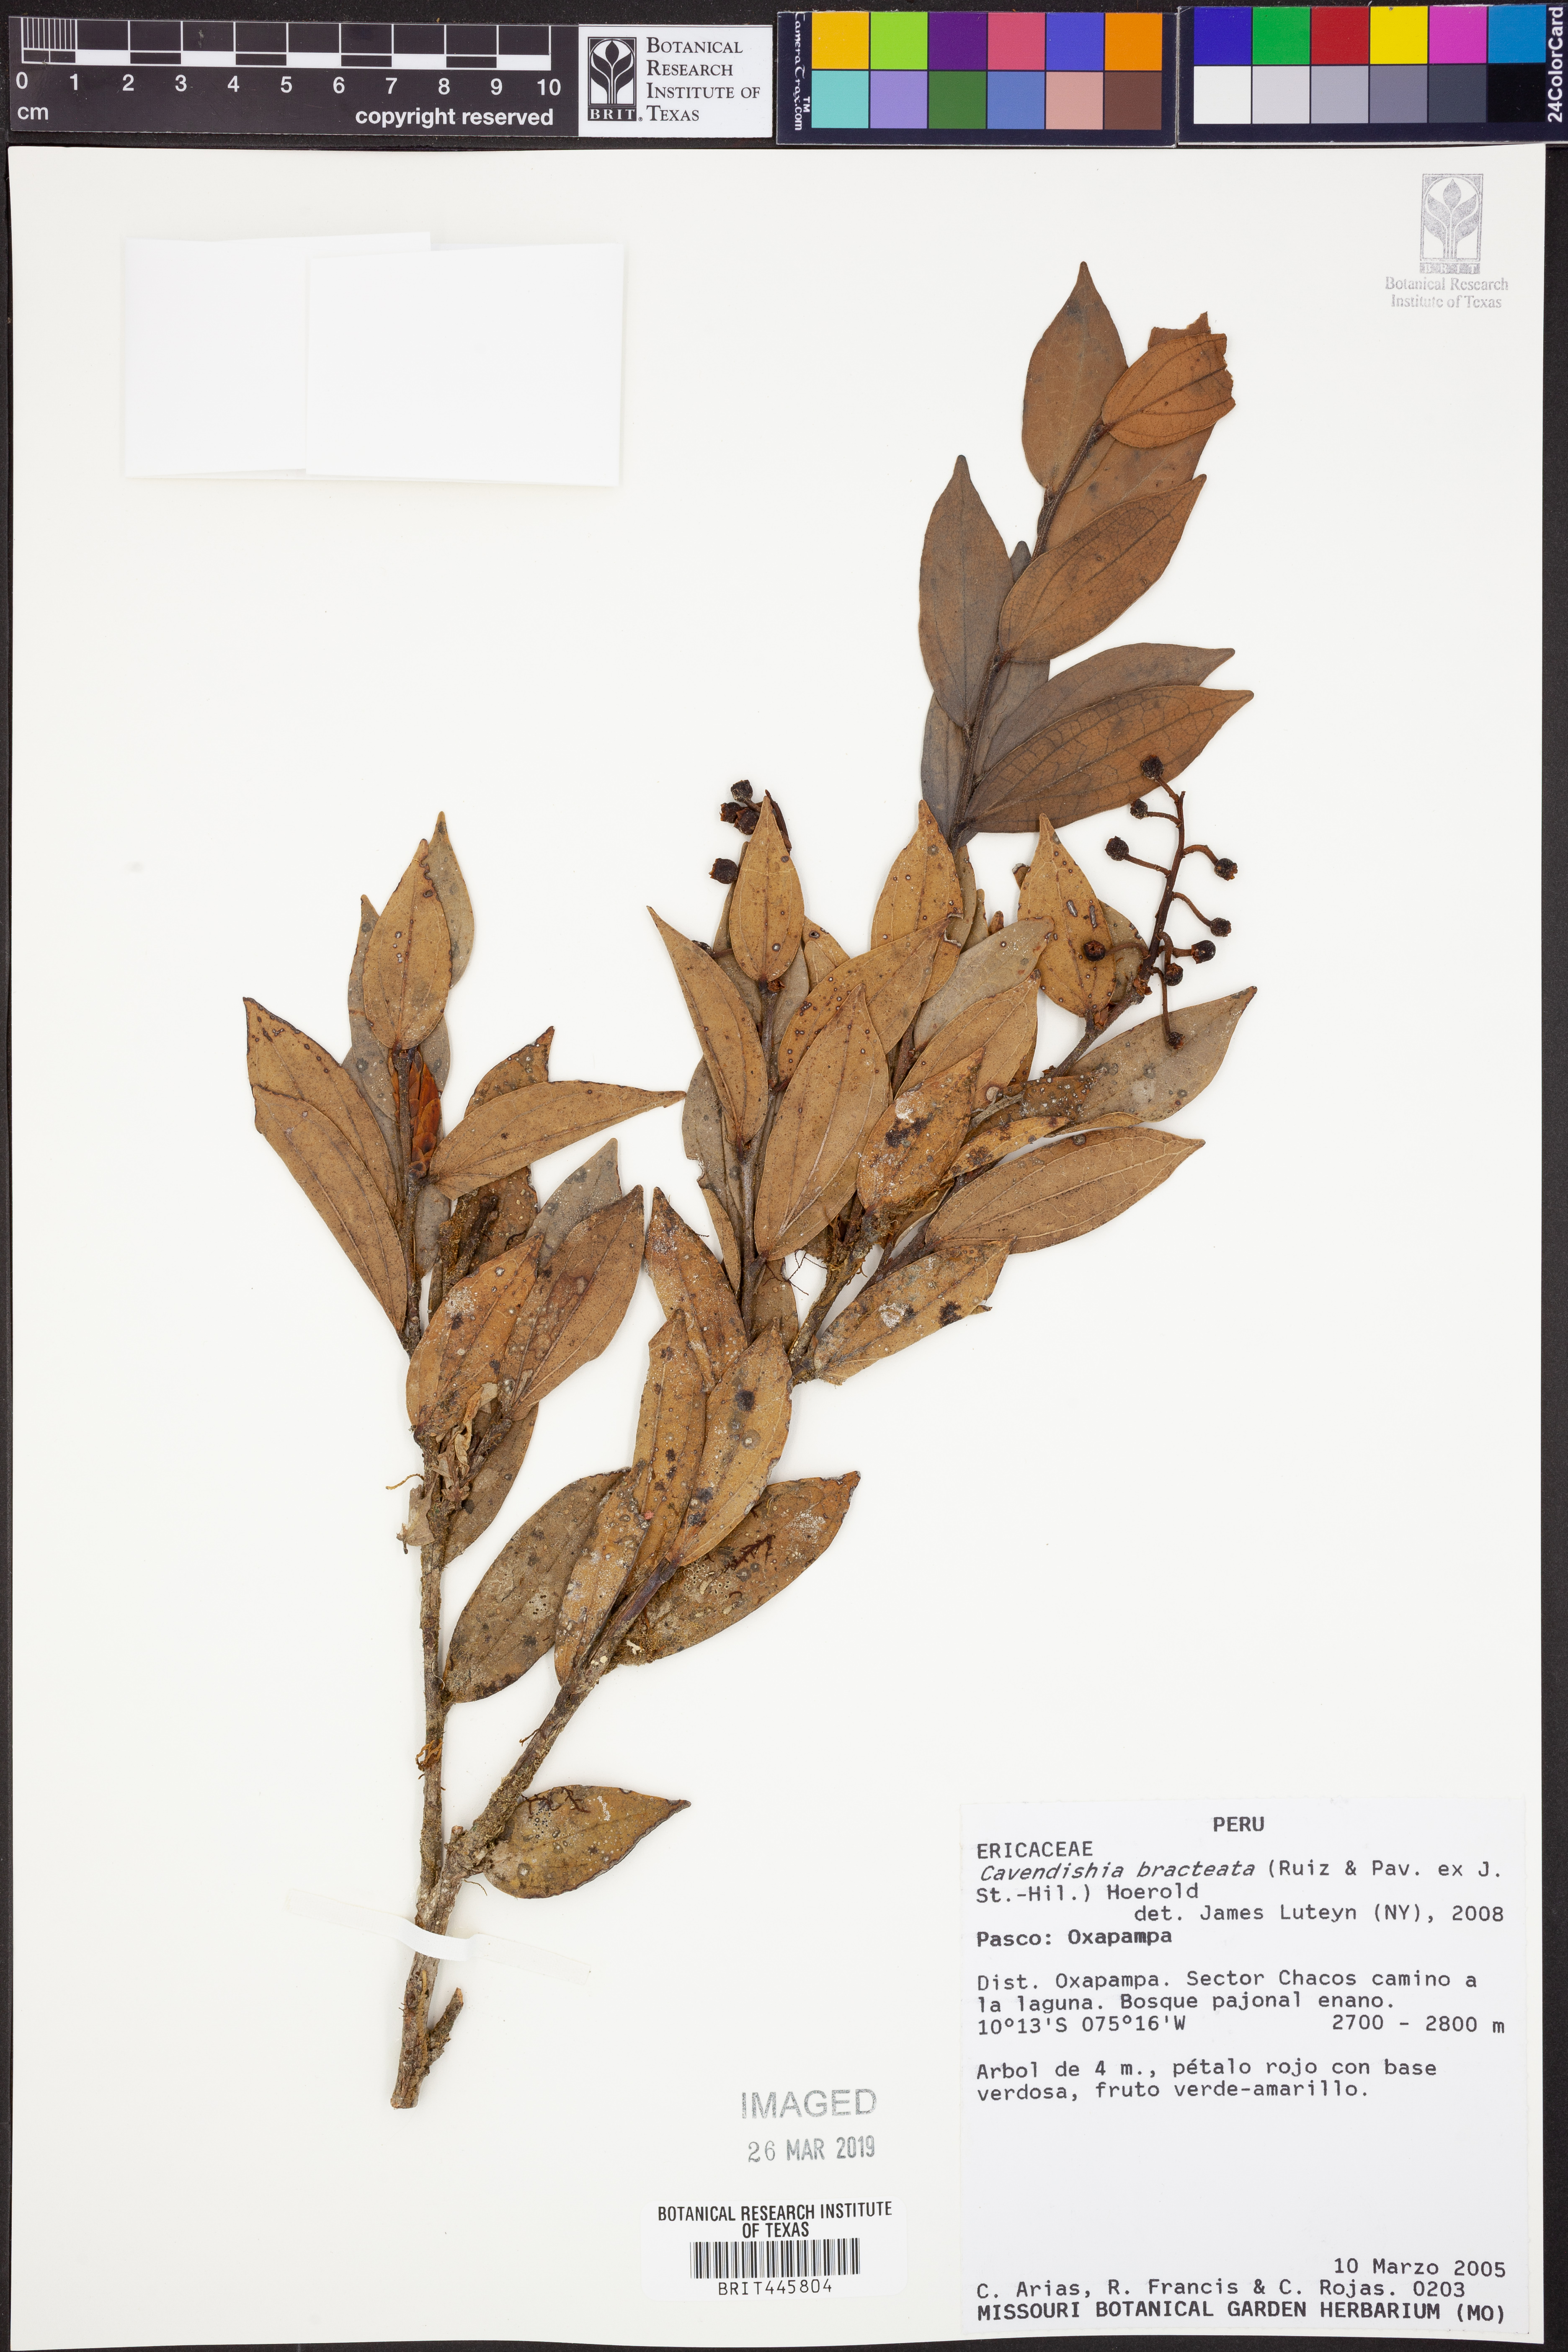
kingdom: Plantae
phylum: Tracheophyta
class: Magnoliopsida
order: Ericales
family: Ericaceae
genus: Cavendishia
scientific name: Cavendishia bracteata
